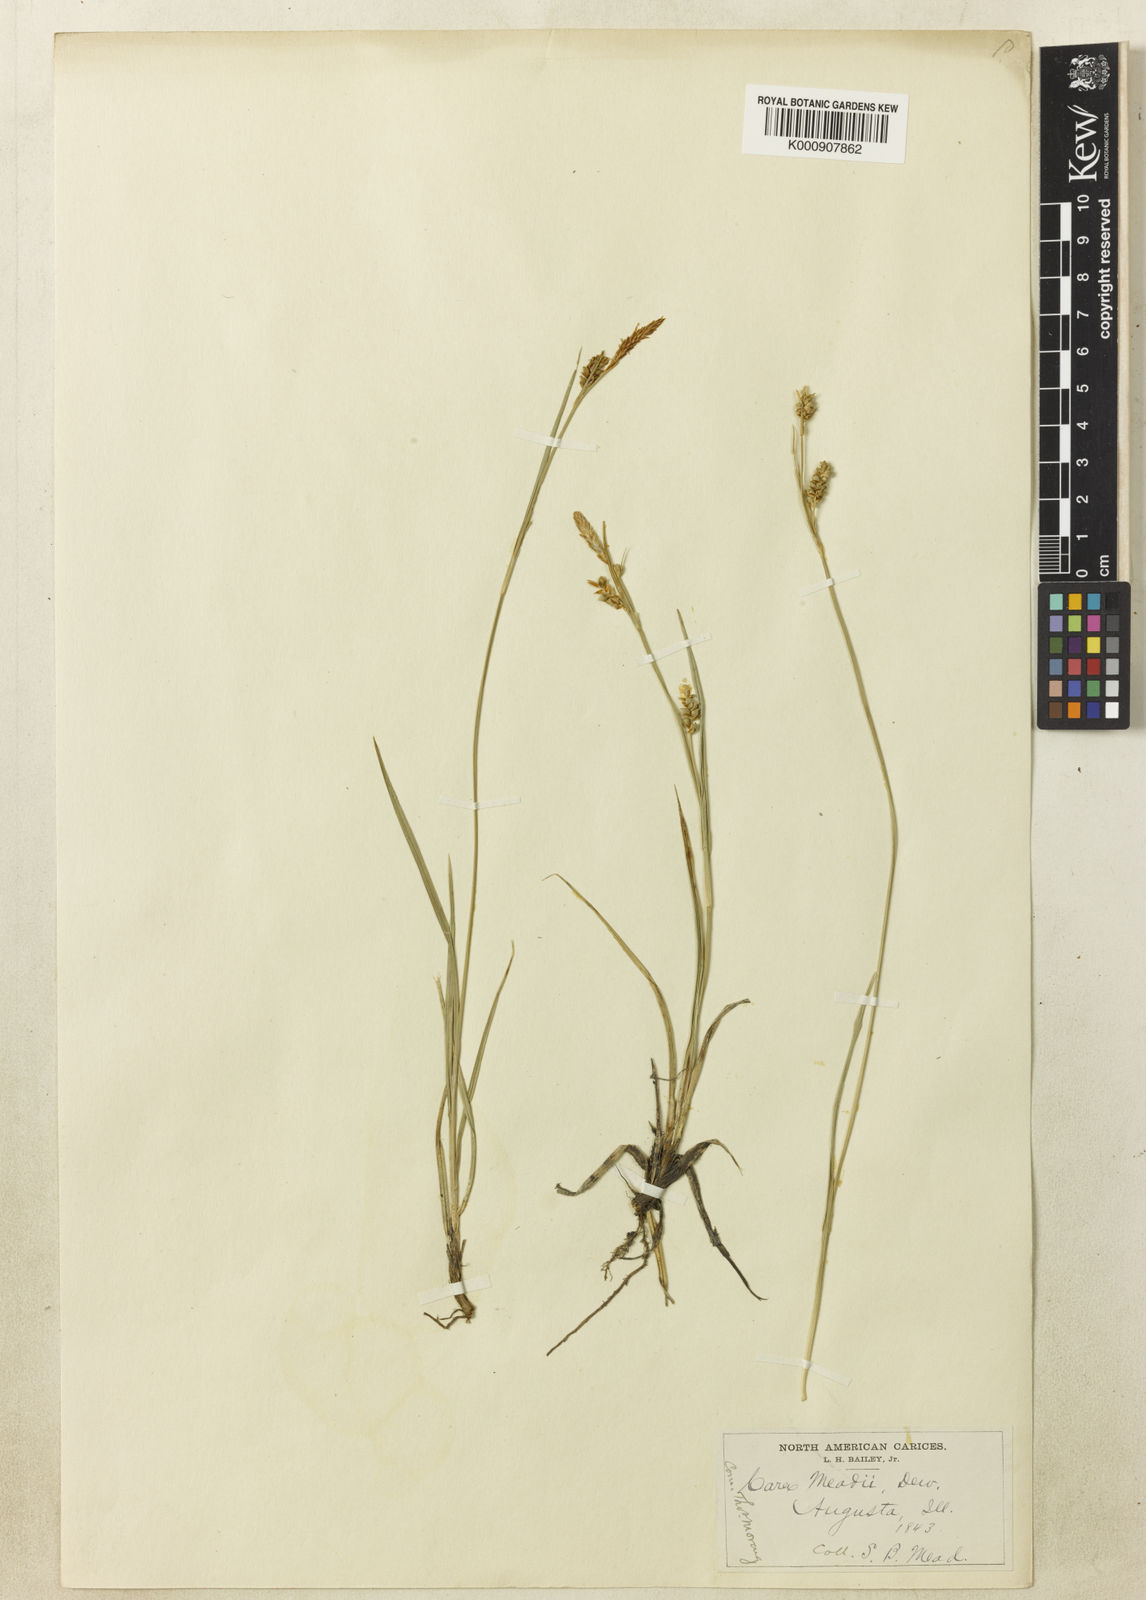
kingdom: Plantae
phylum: Tracheophyta
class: Liliopsida
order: Poales
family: Cyperaceae
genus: Carex
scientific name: Carex meadii
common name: Mead's sedge
